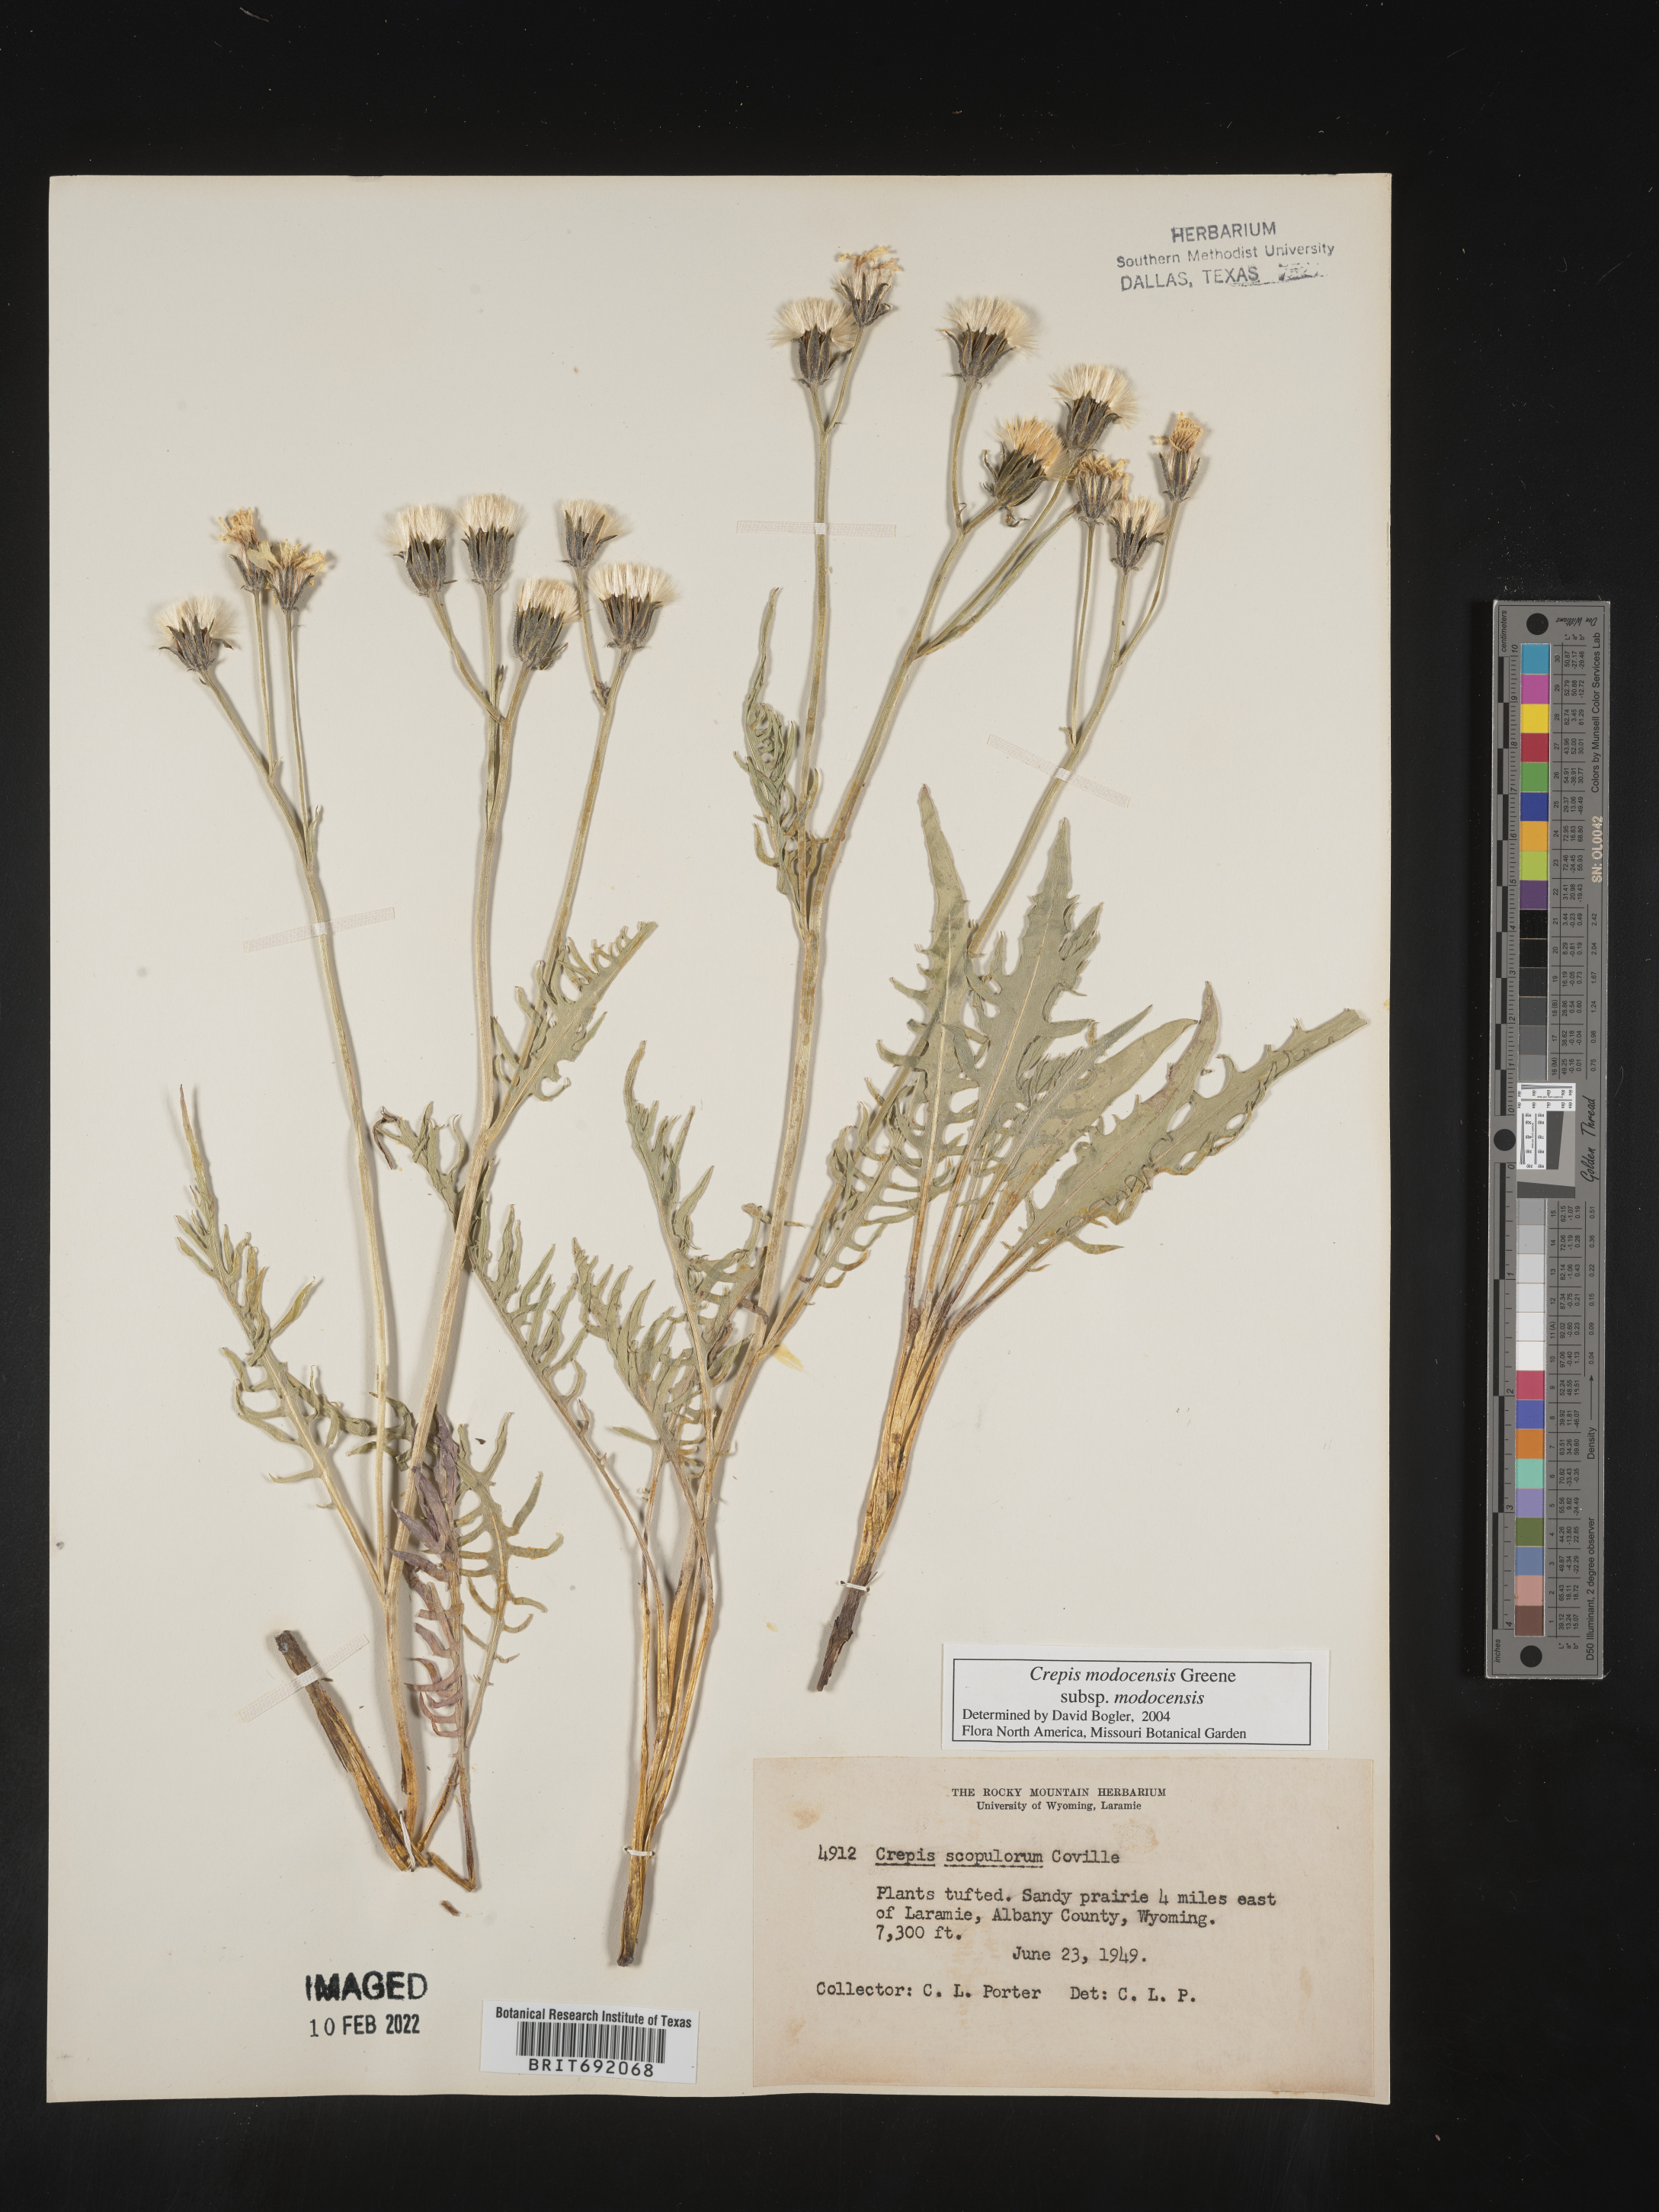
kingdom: Plantae
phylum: Tracheophyta
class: Magnoliopsida
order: Asterales
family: Asteraceae
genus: Crepis
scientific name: Crepis
